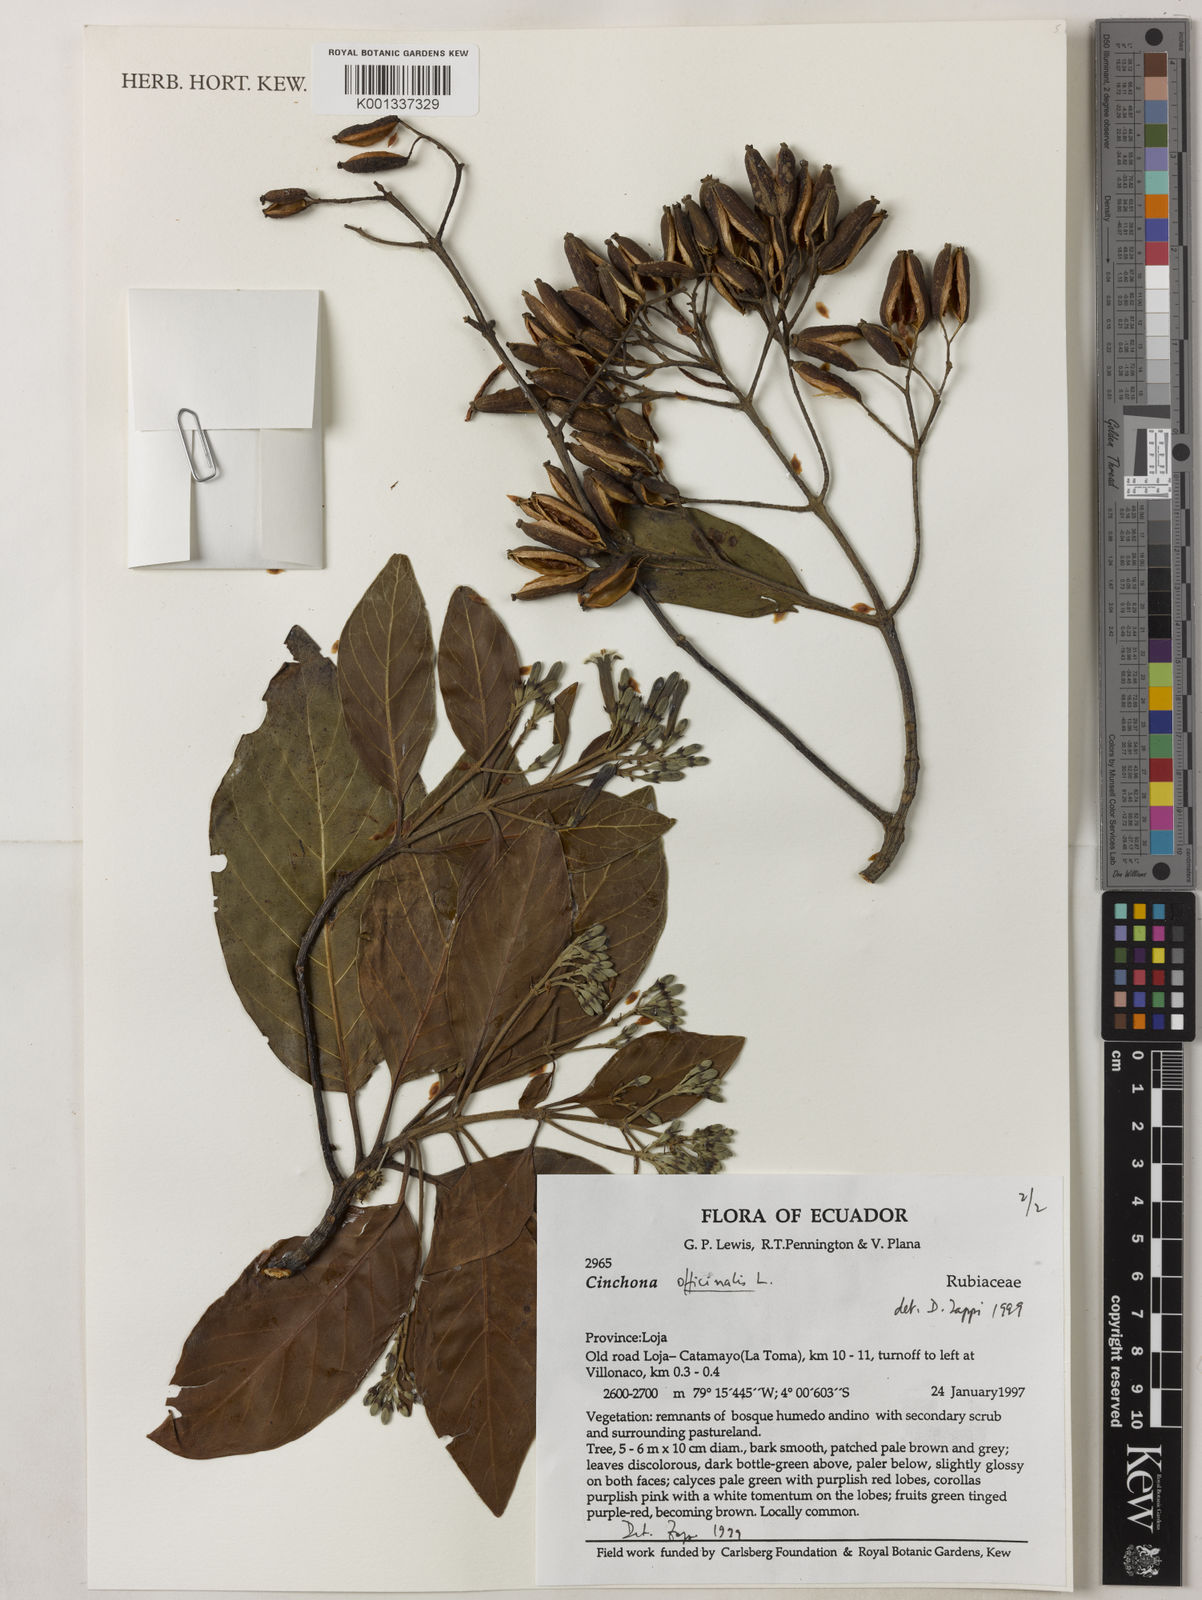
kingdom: Plantae
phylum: Tracheophyta
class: Magnoliopsida
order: Gentianales
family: Rubiaceae
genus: Cinchona
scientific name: Cinchona officinalis
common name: Lojabark
